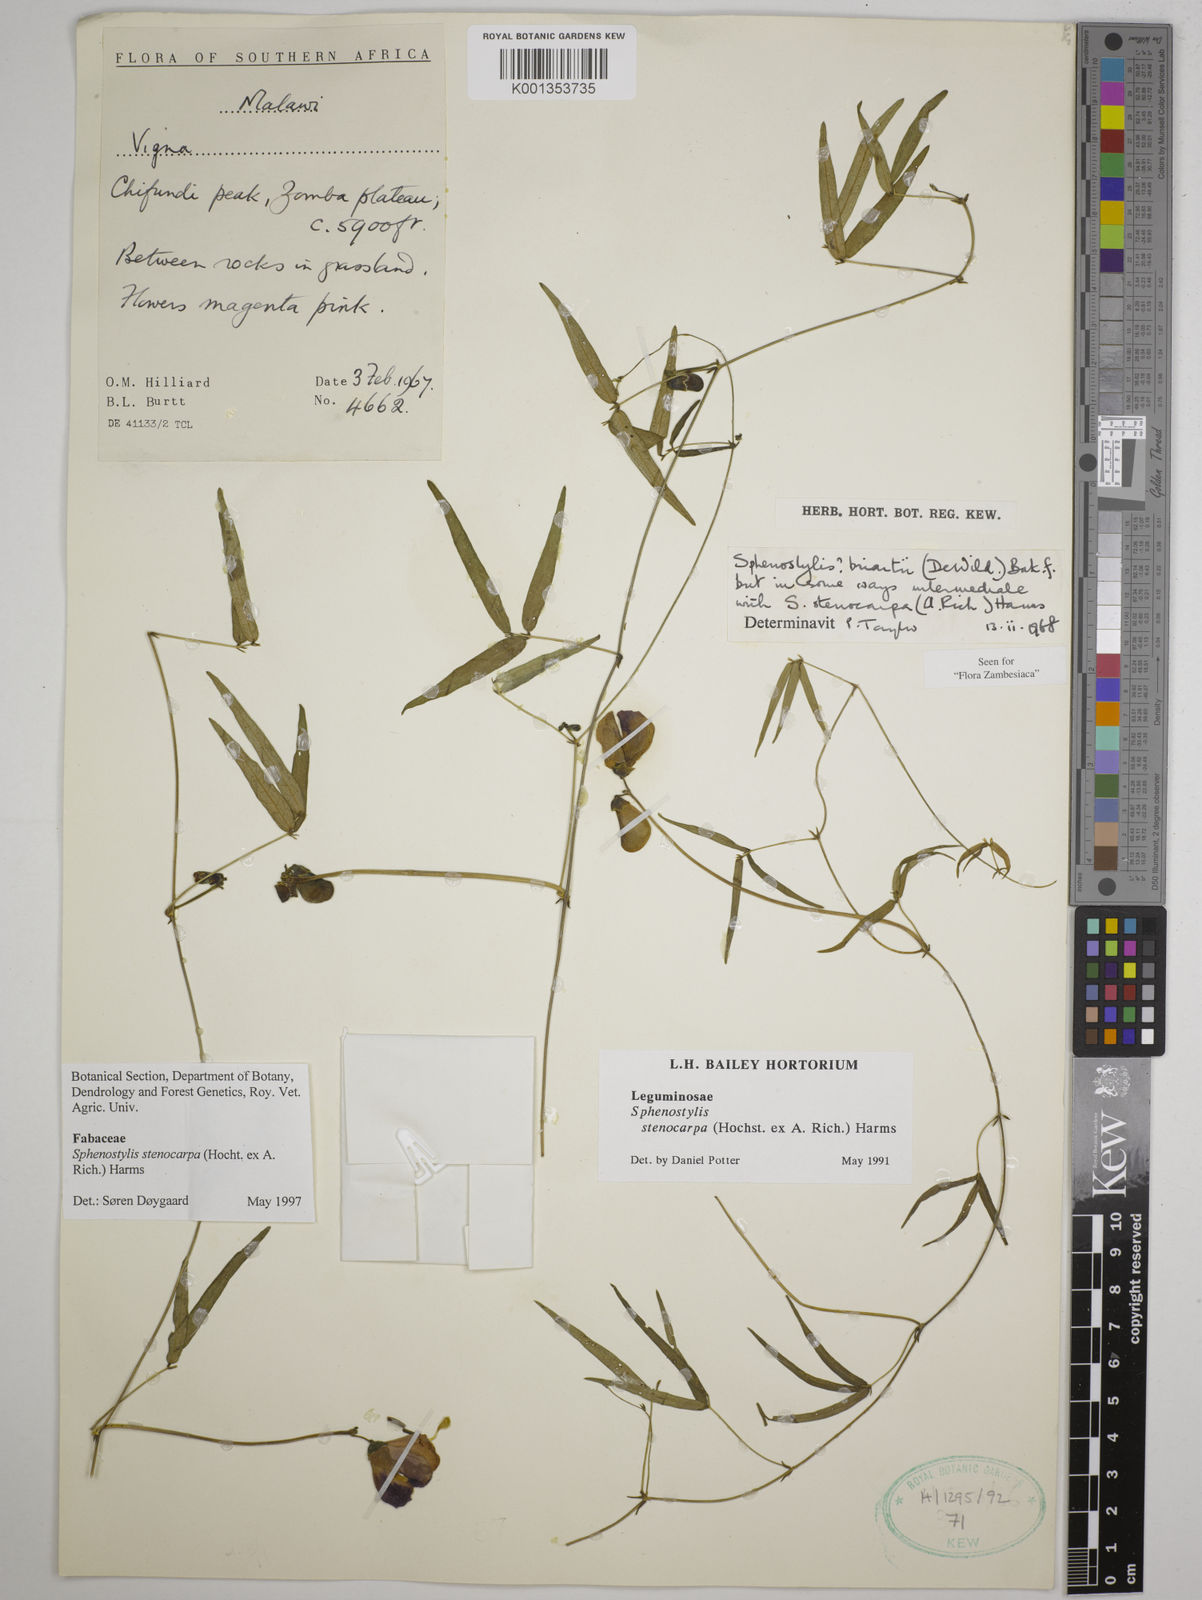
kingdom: Plantae
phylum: Tracheophyta
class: Magnoliopsida
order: Fabales
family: Fabaceae
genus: Sphenostylis
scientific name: Sphenostylis stenocarpa
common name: Yam-pea
